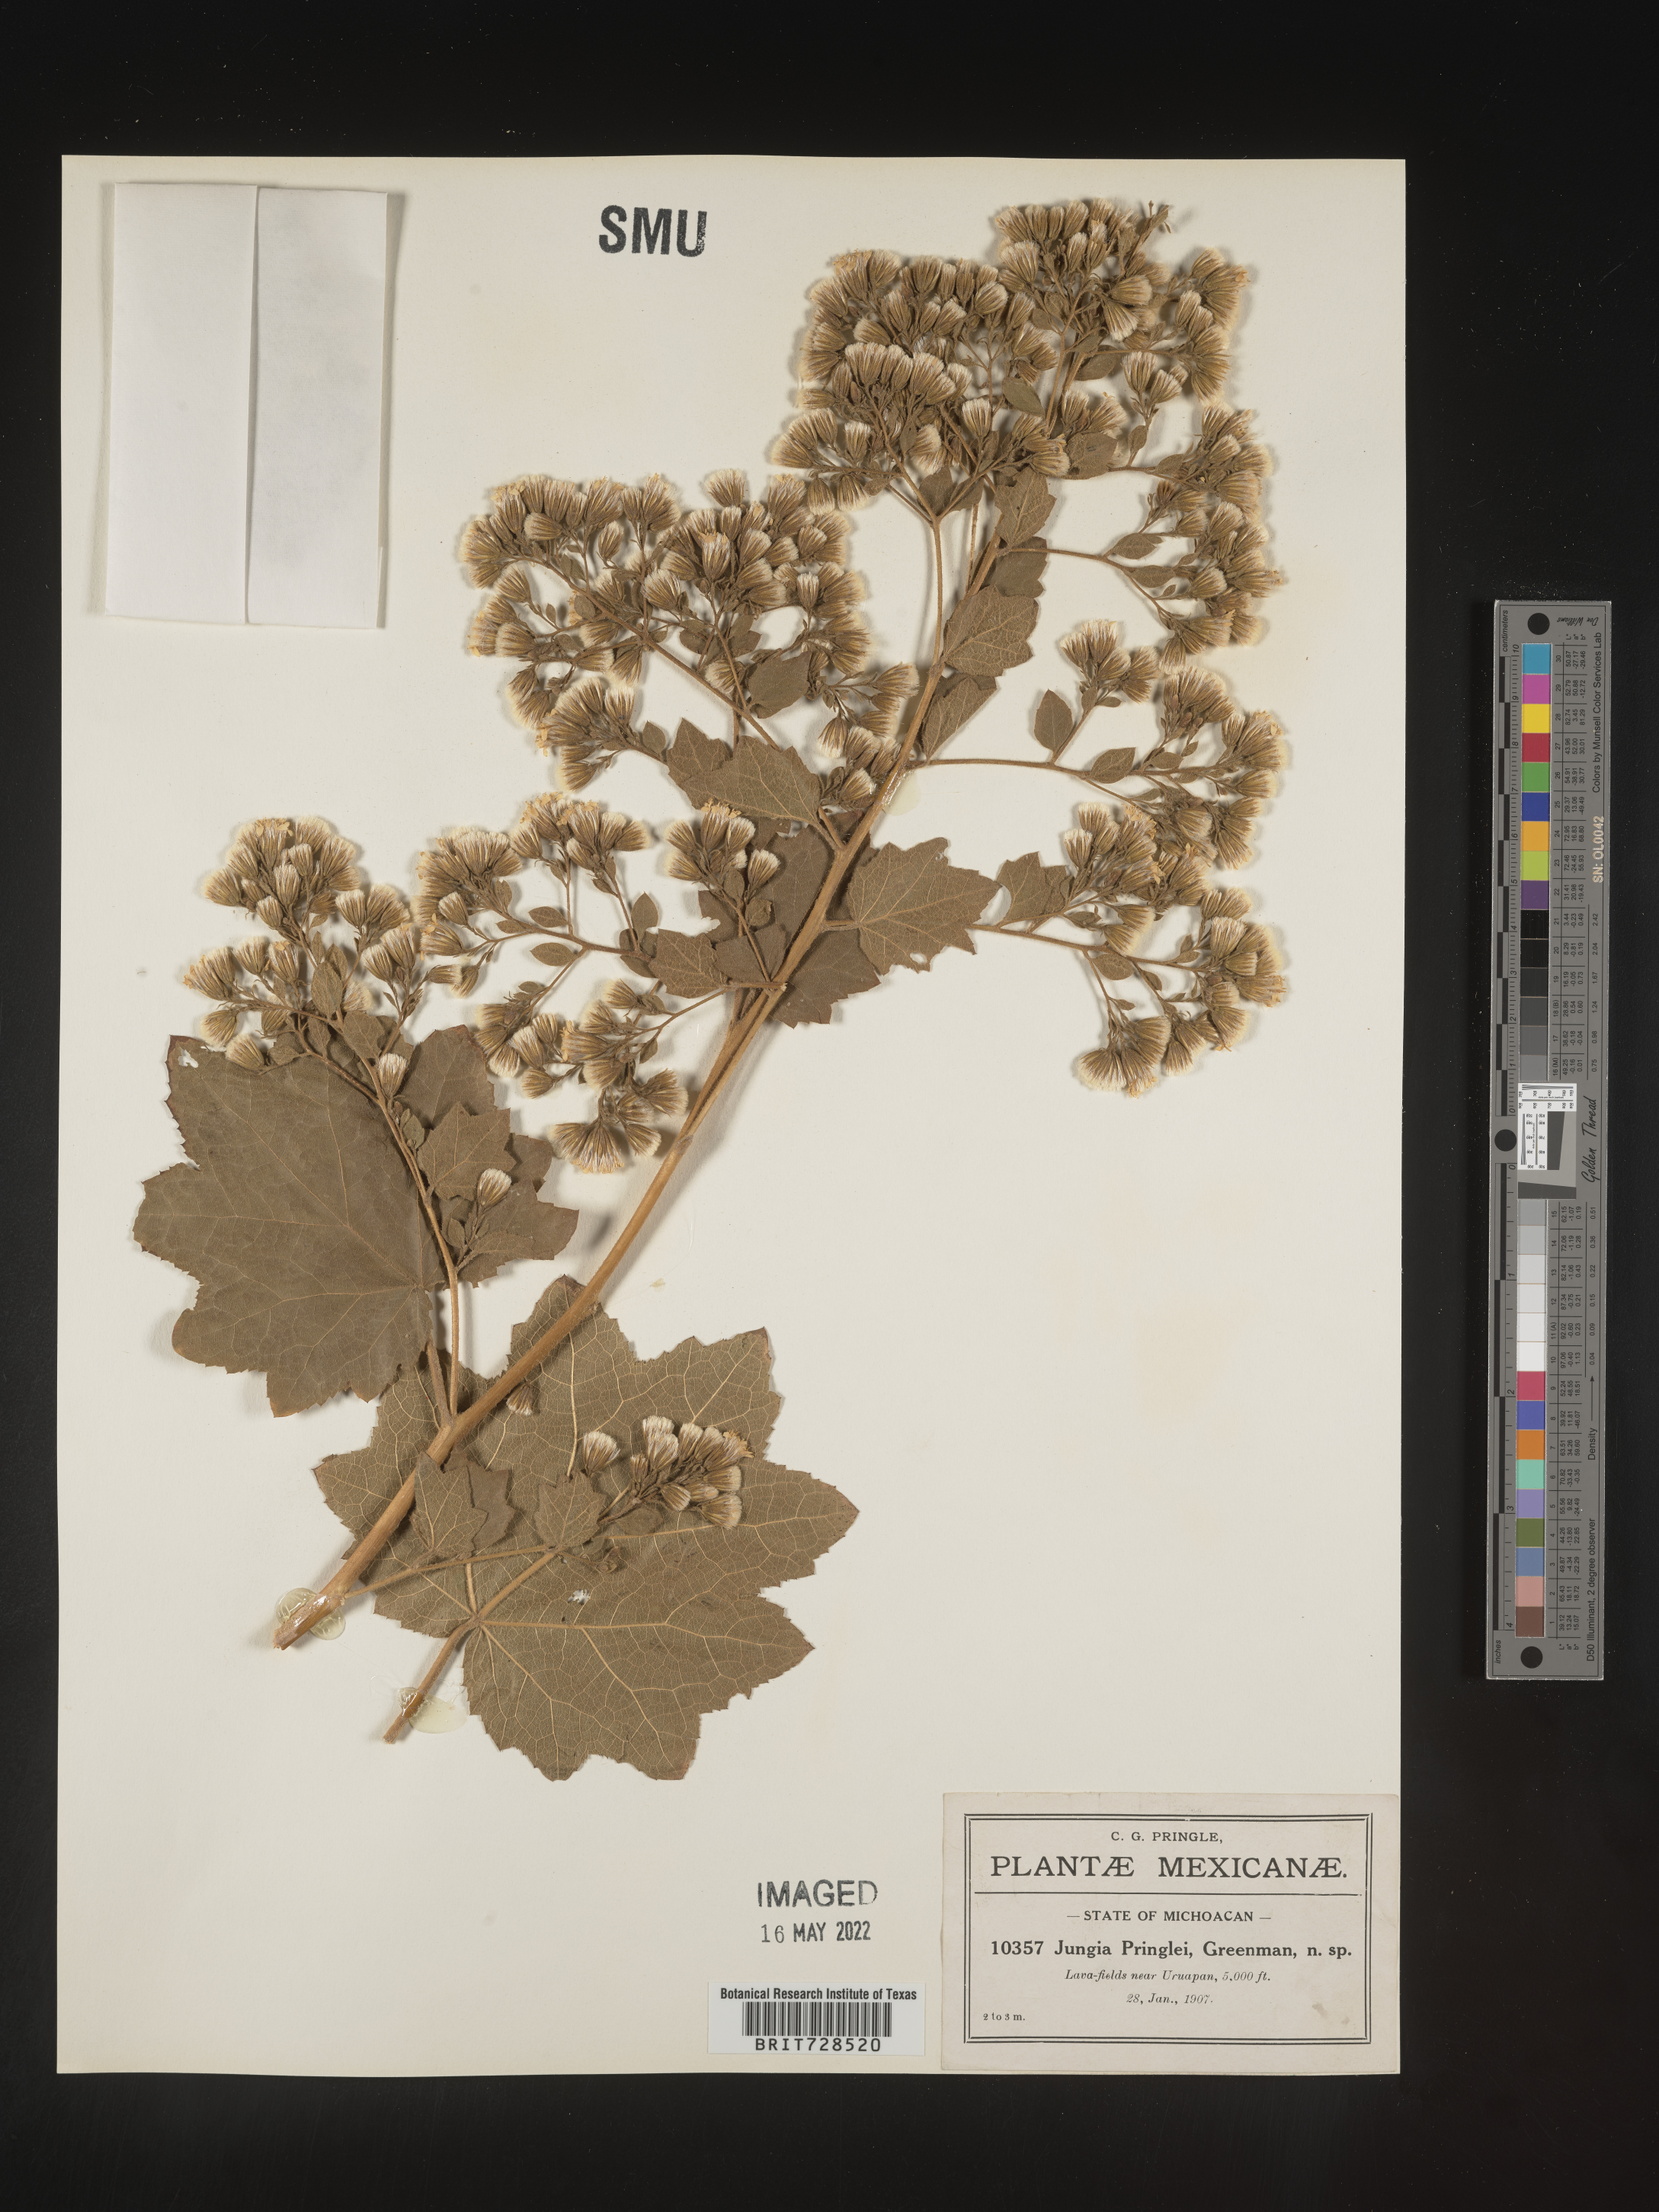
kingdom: Plantae
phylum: Tracheophyta
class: Magnoliopsida
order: Asterales
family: Asteraceae
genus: Jungia
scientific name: Jungia
